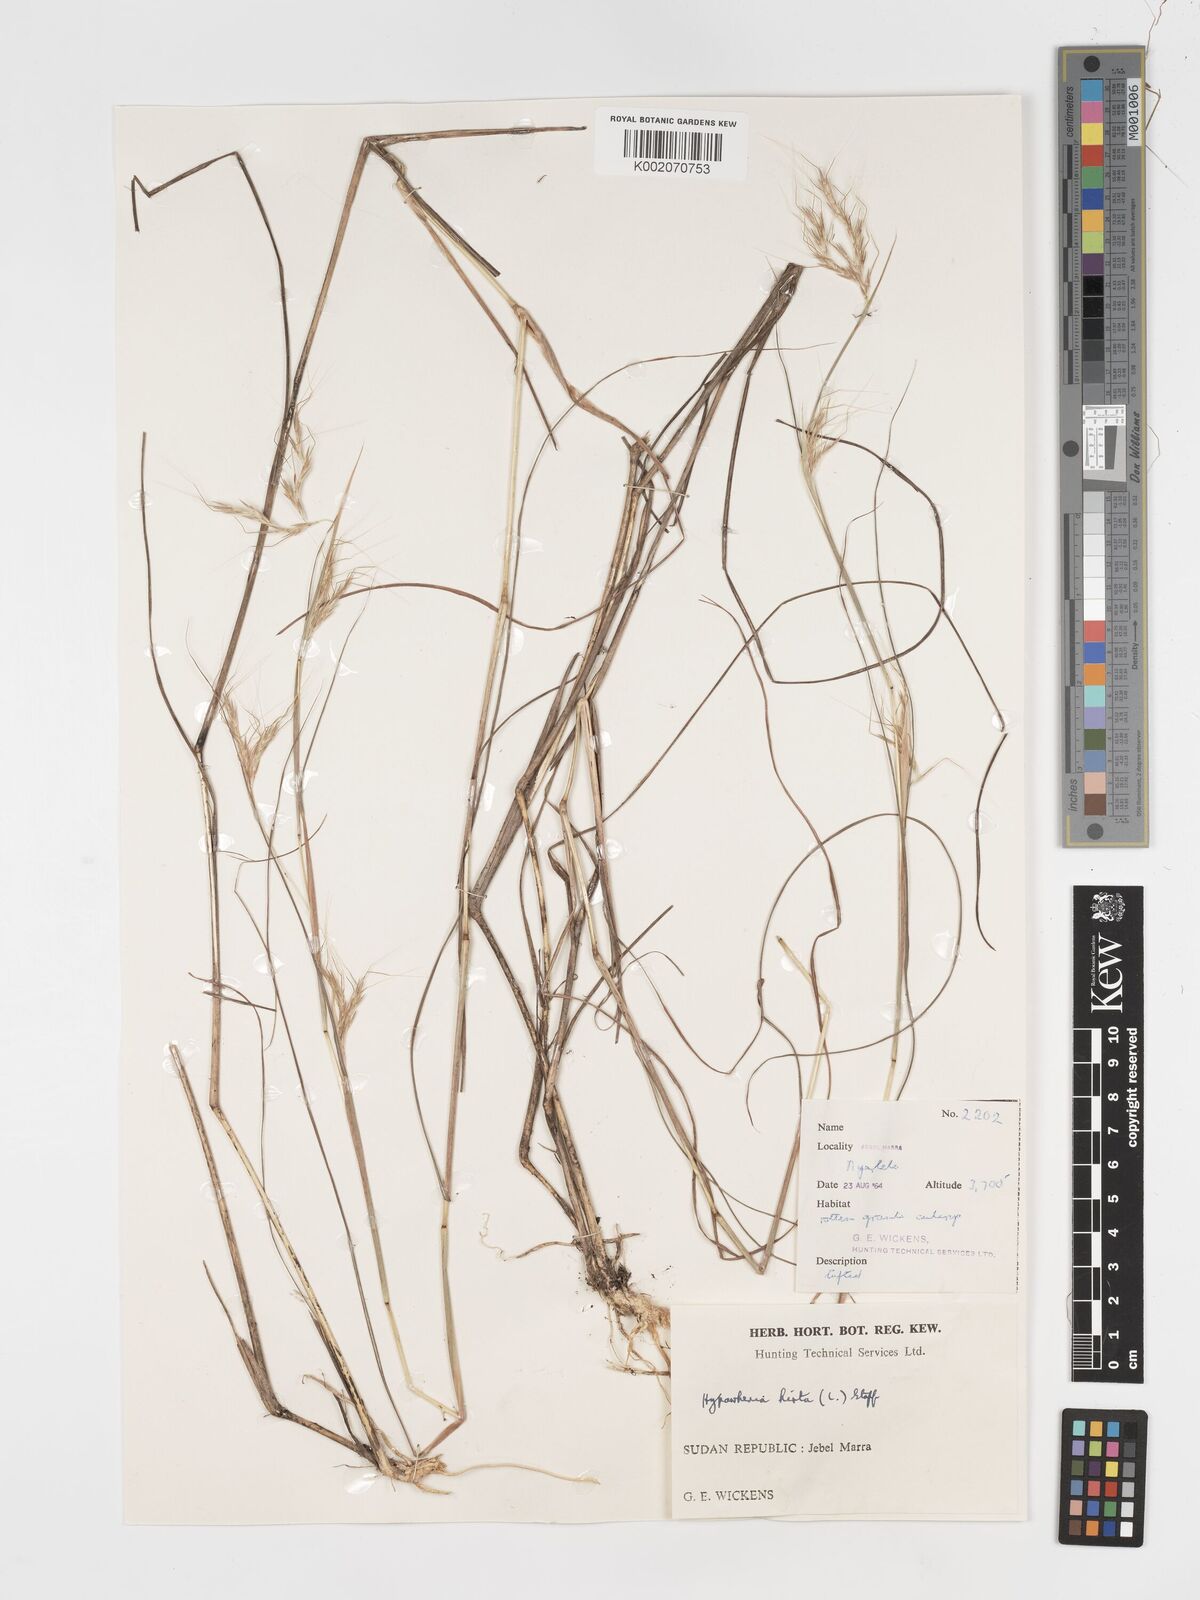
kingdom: Plantae
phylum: Tracheophyta
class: Liliopsida
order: Poales
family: Poaceae
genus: Hyparrhenia
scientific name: Hyparrhenia hirta
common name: Thatching grass
